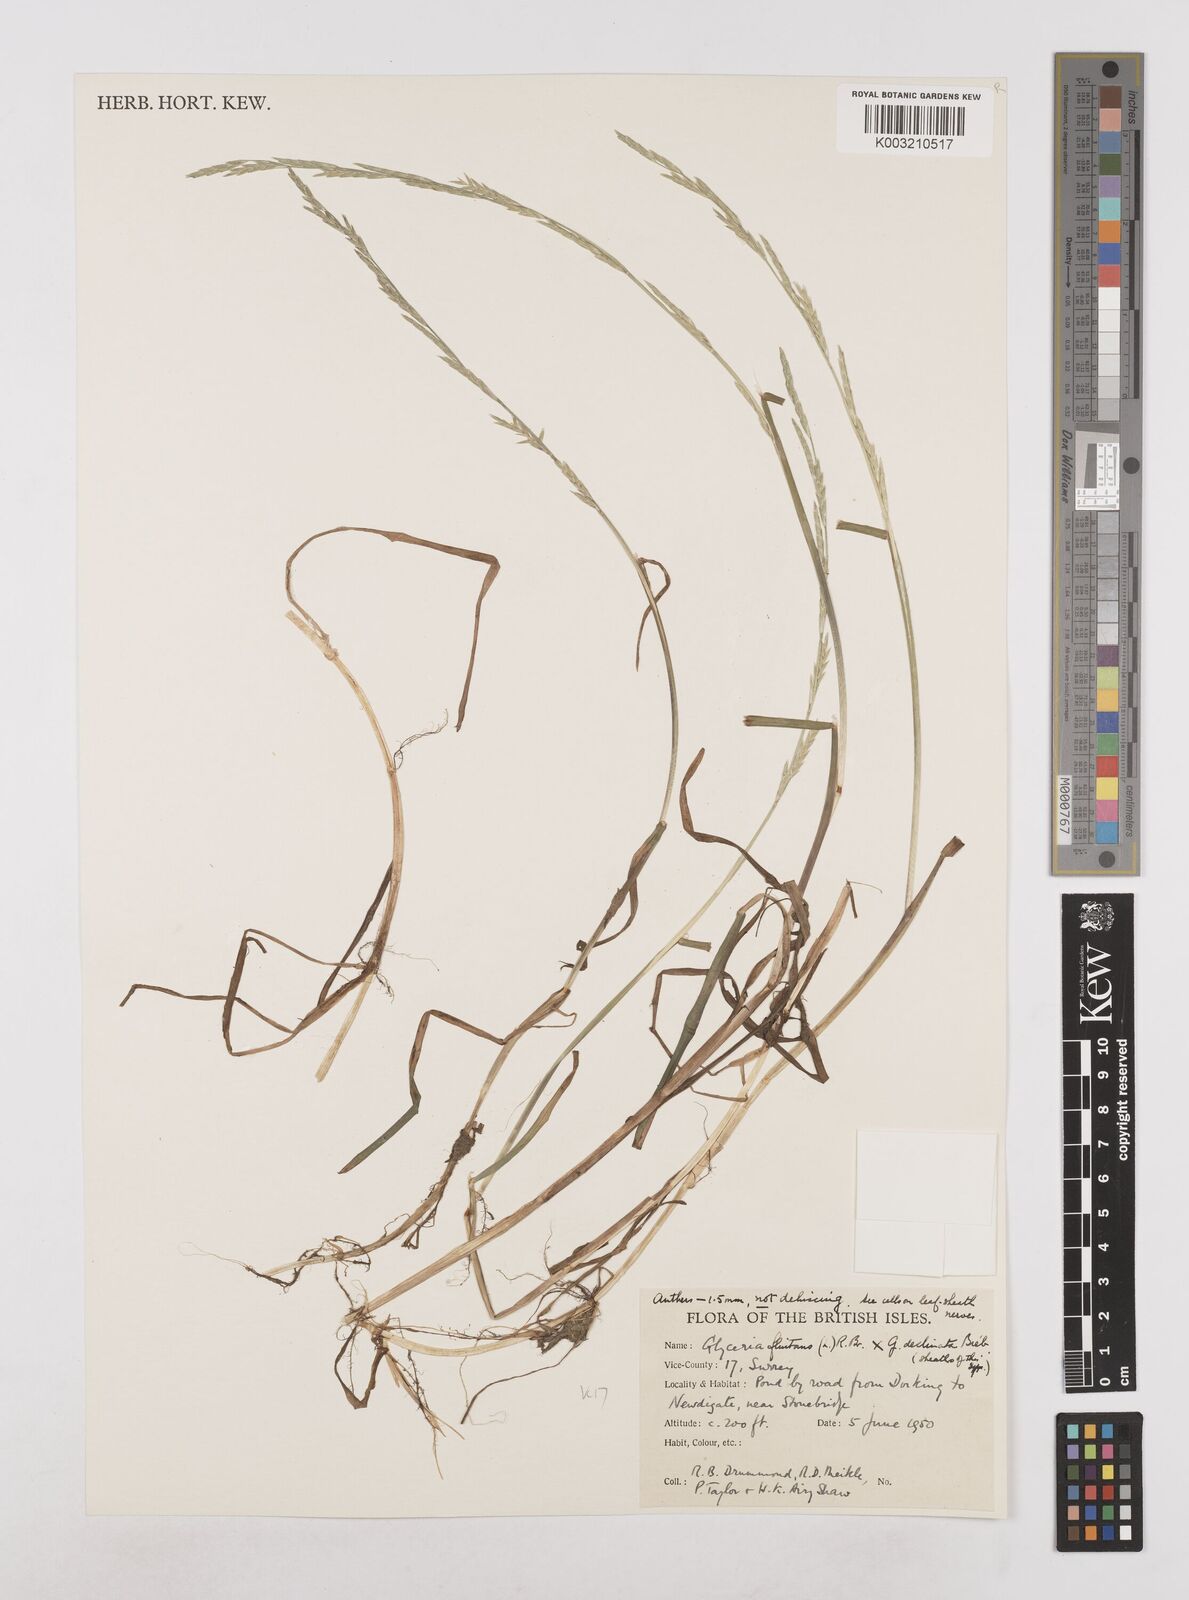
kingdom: Plantae
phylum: Tracheophyta
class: Liliopsida
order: Poales
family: Poaceae
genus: Glyceria
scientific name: Glyceria declinata
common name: Small sweet-grass
